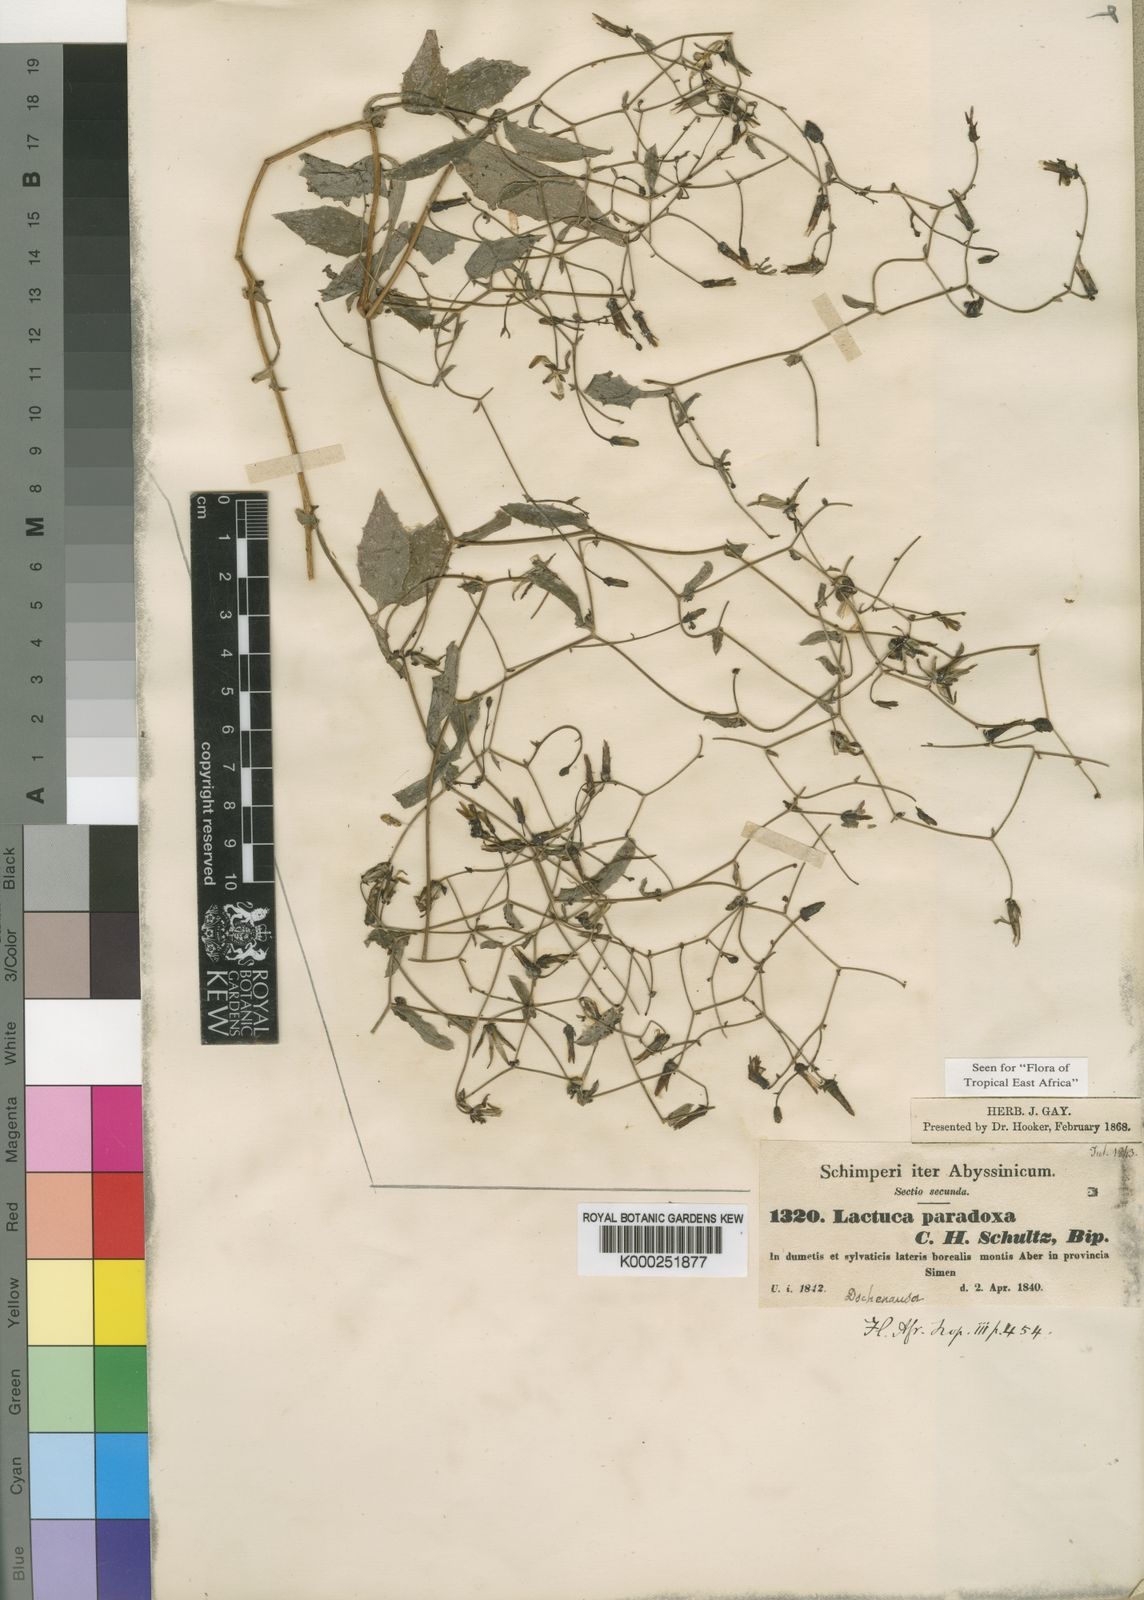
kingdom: Plantae
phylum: Tracheophyta
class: Magnoliopsida
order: Asterales
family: Asteraceae
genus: Lactuca
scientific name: Lactuca paradoxa
